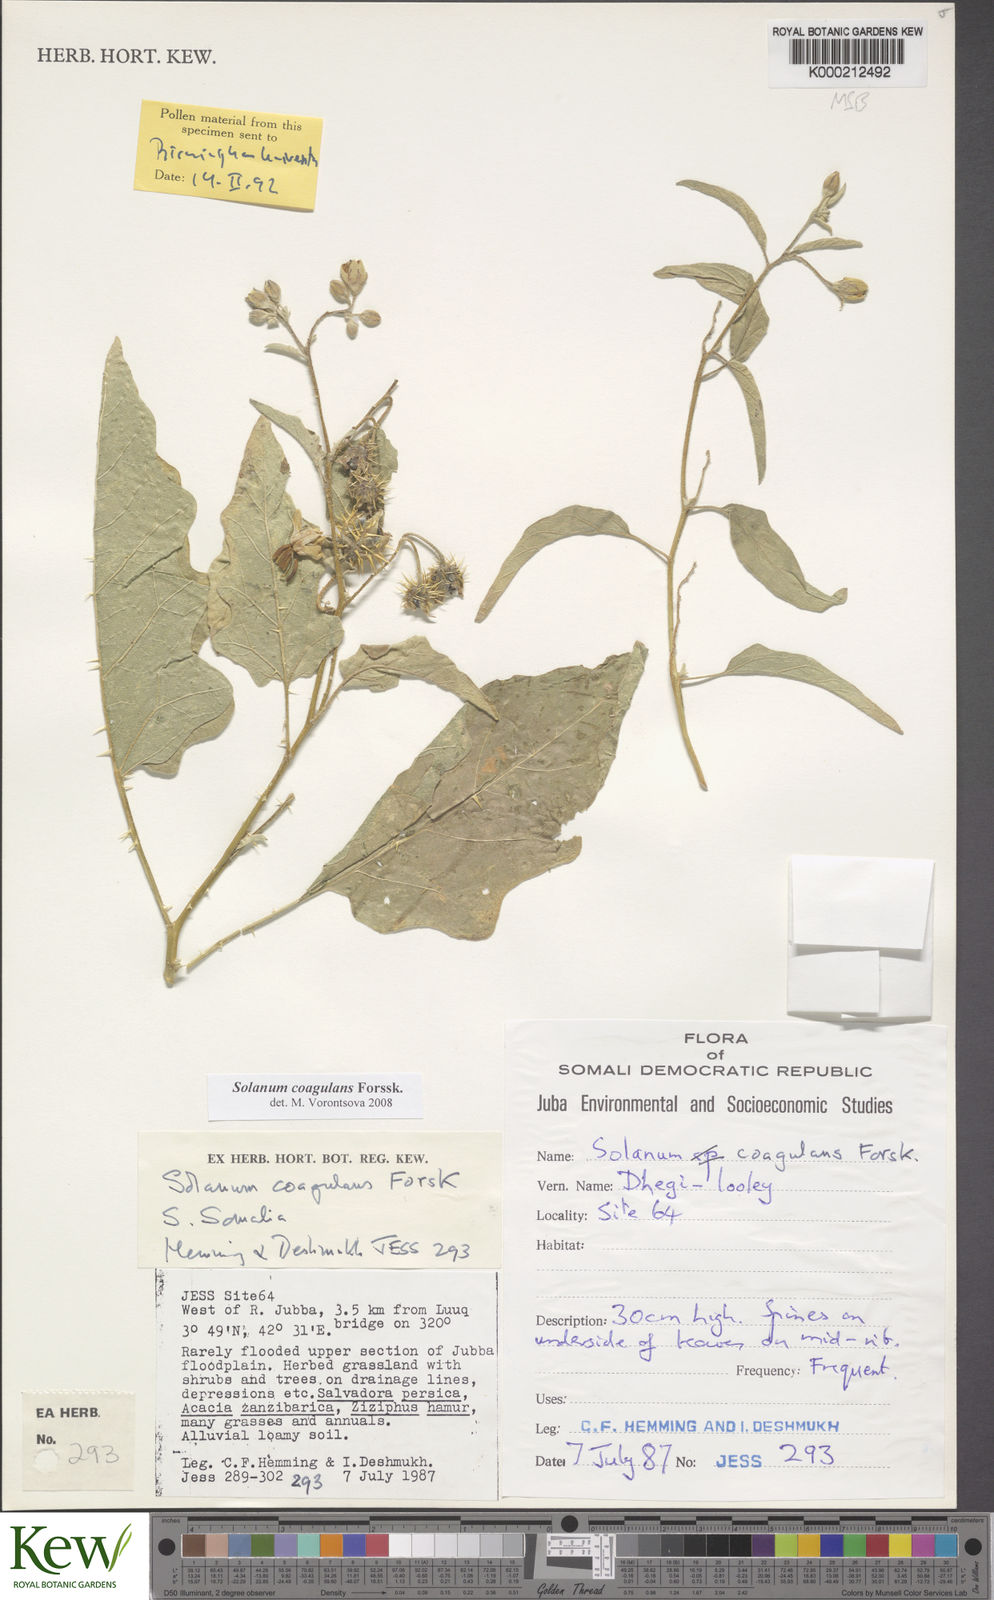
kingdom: Plantae
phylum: Tracheophyta
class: Magnoliopsida
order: Solanales
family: Solanaceae
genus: Solanum
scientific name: Solanum coagulans
